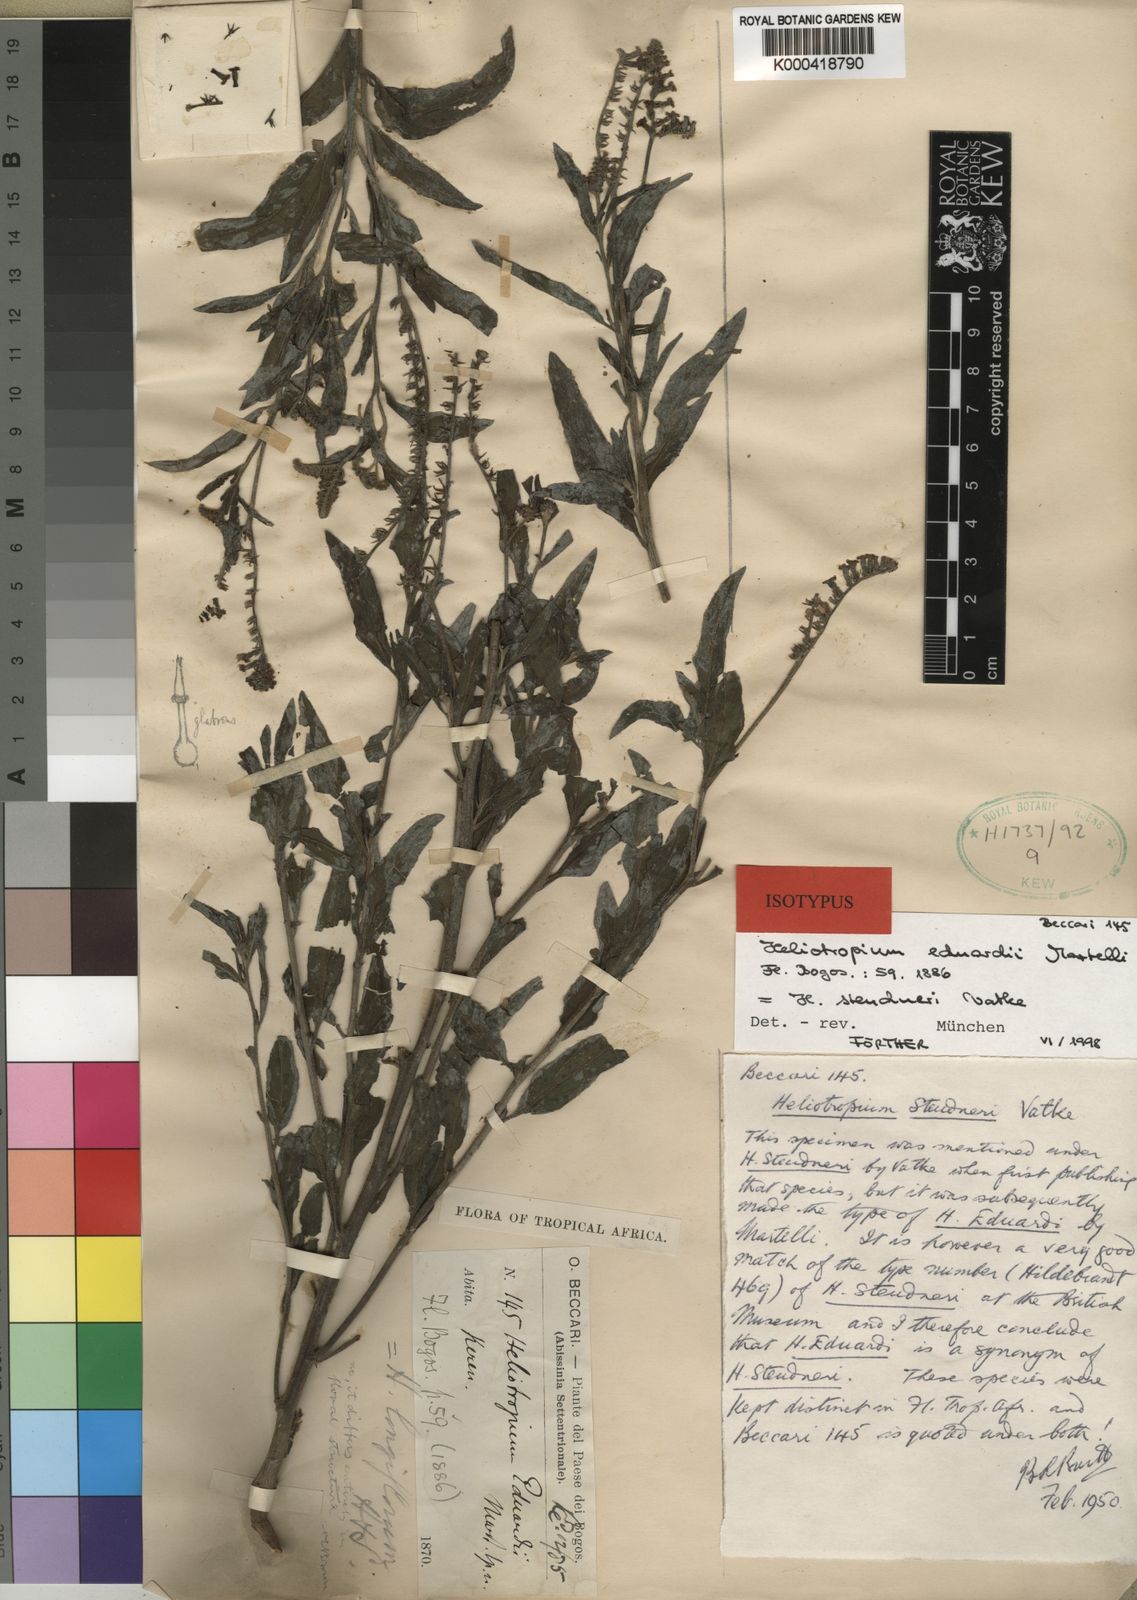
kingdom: Plantae
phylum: Tracheophyta
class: Magnoliopsida
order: Boraginales
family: Heliotropiaceae
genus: Heliotropium
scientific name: Heliotropium steudneri
